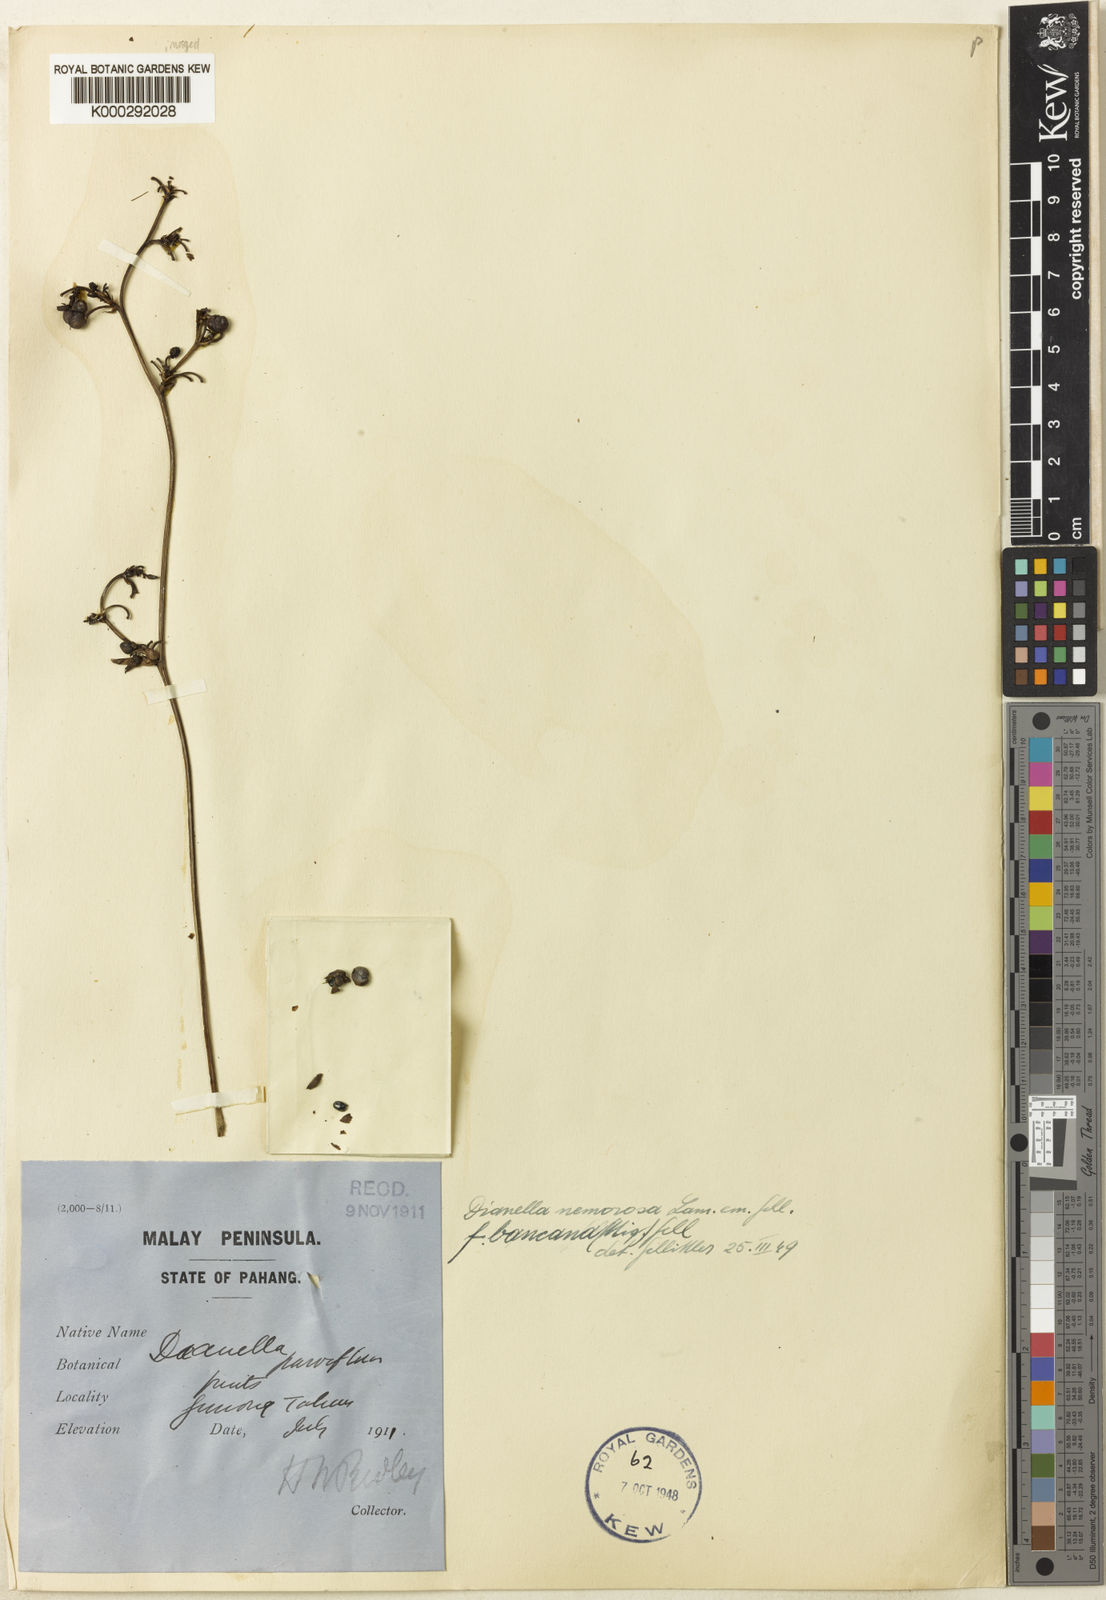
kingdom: Plantae
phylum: Tracheophyta
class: Liliopsida
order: Asparagales
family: Asphodelaceae
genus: Dianella
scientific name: Dianella
